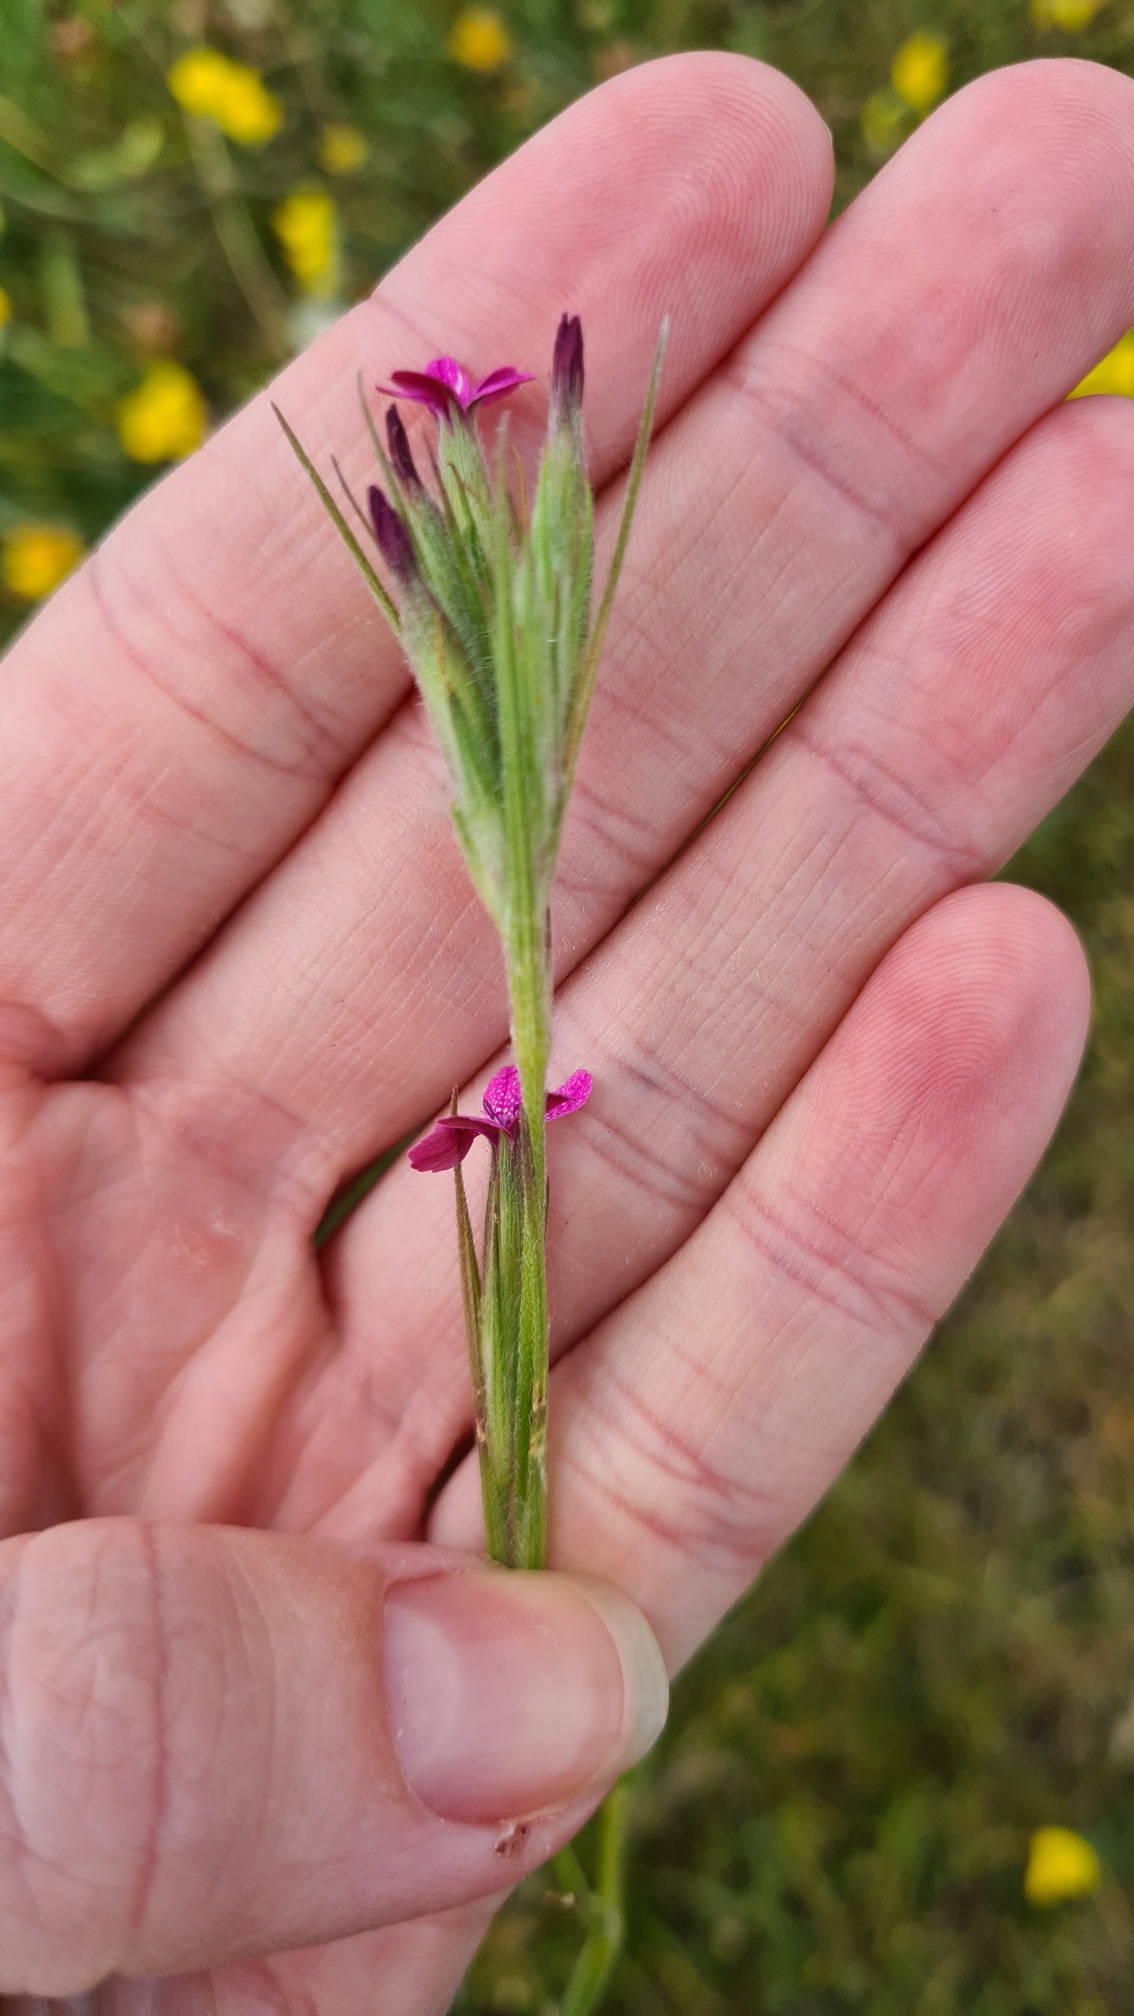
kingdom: Plantae
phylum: Tracheophyta
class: Magnoliopsida
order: Caryophyllales
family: Caryophyllaceae
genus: Dianthus
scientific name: Dianthus armeria
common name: Kost-nellike
